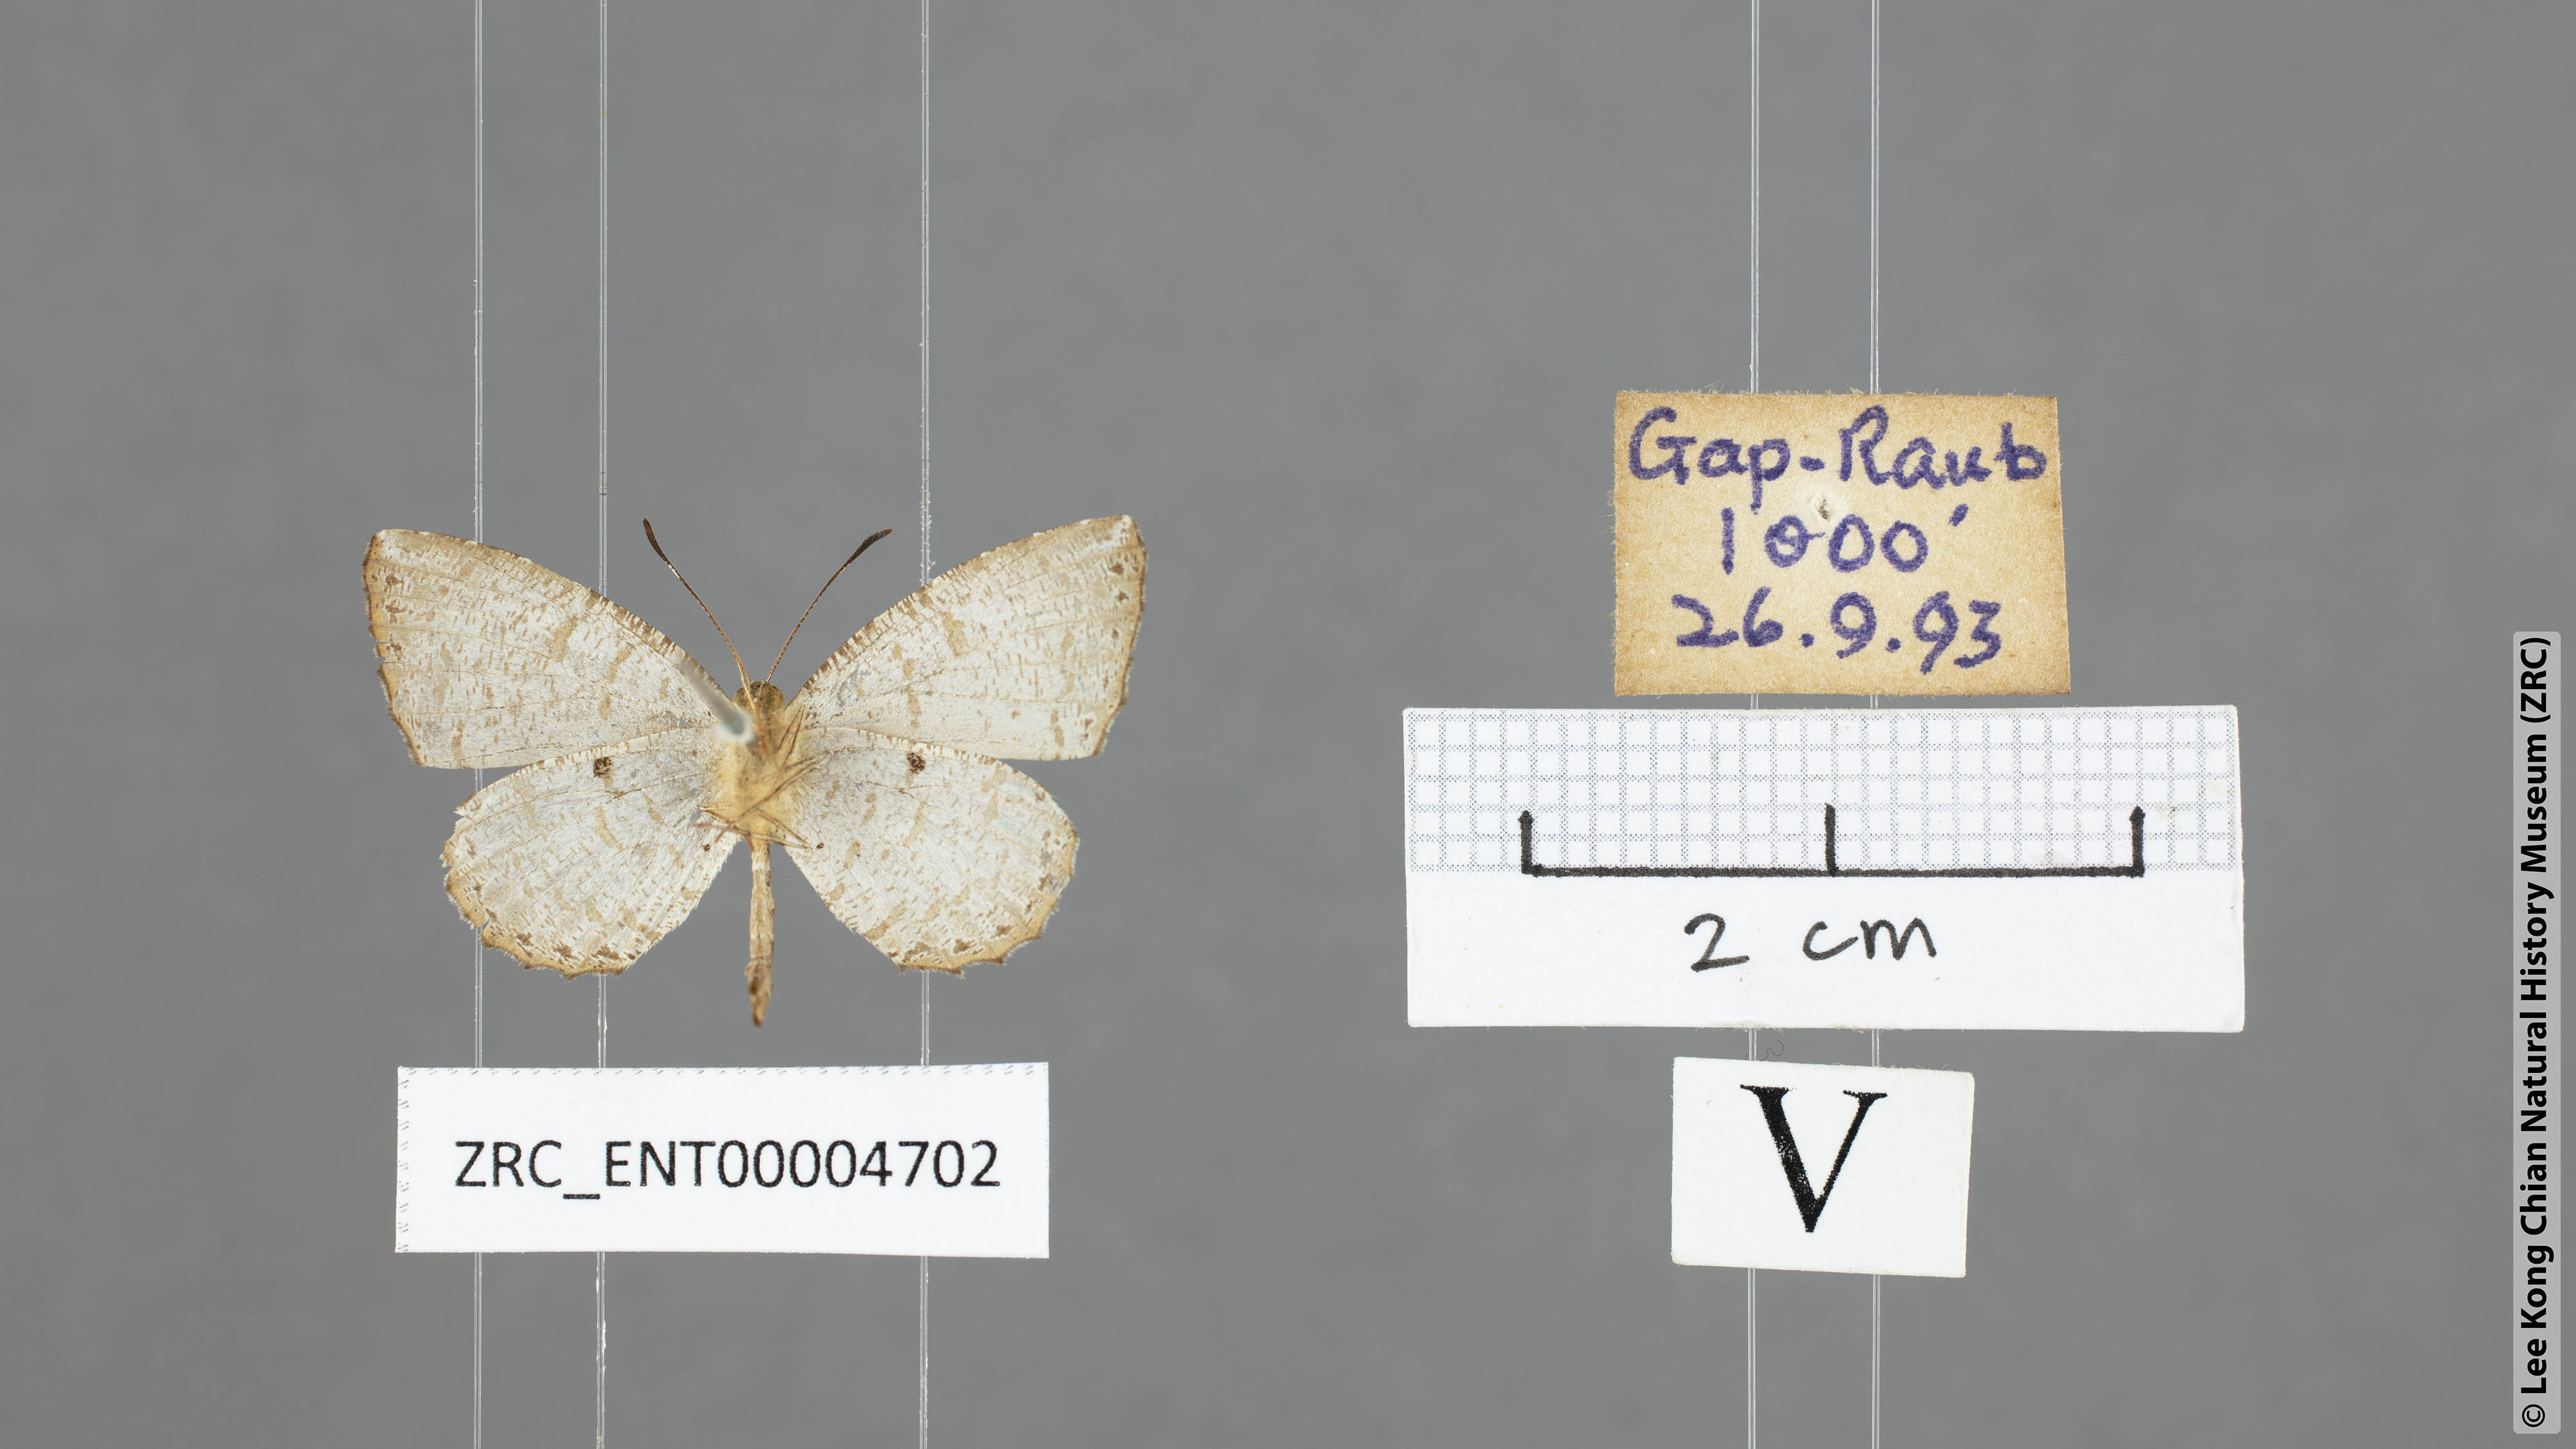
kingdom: Animalia
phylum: Arthropoda
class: Insecta
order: Lepidoptera
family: Lycaenidae
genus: Allotinus
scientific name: Allotinus substrigosa
